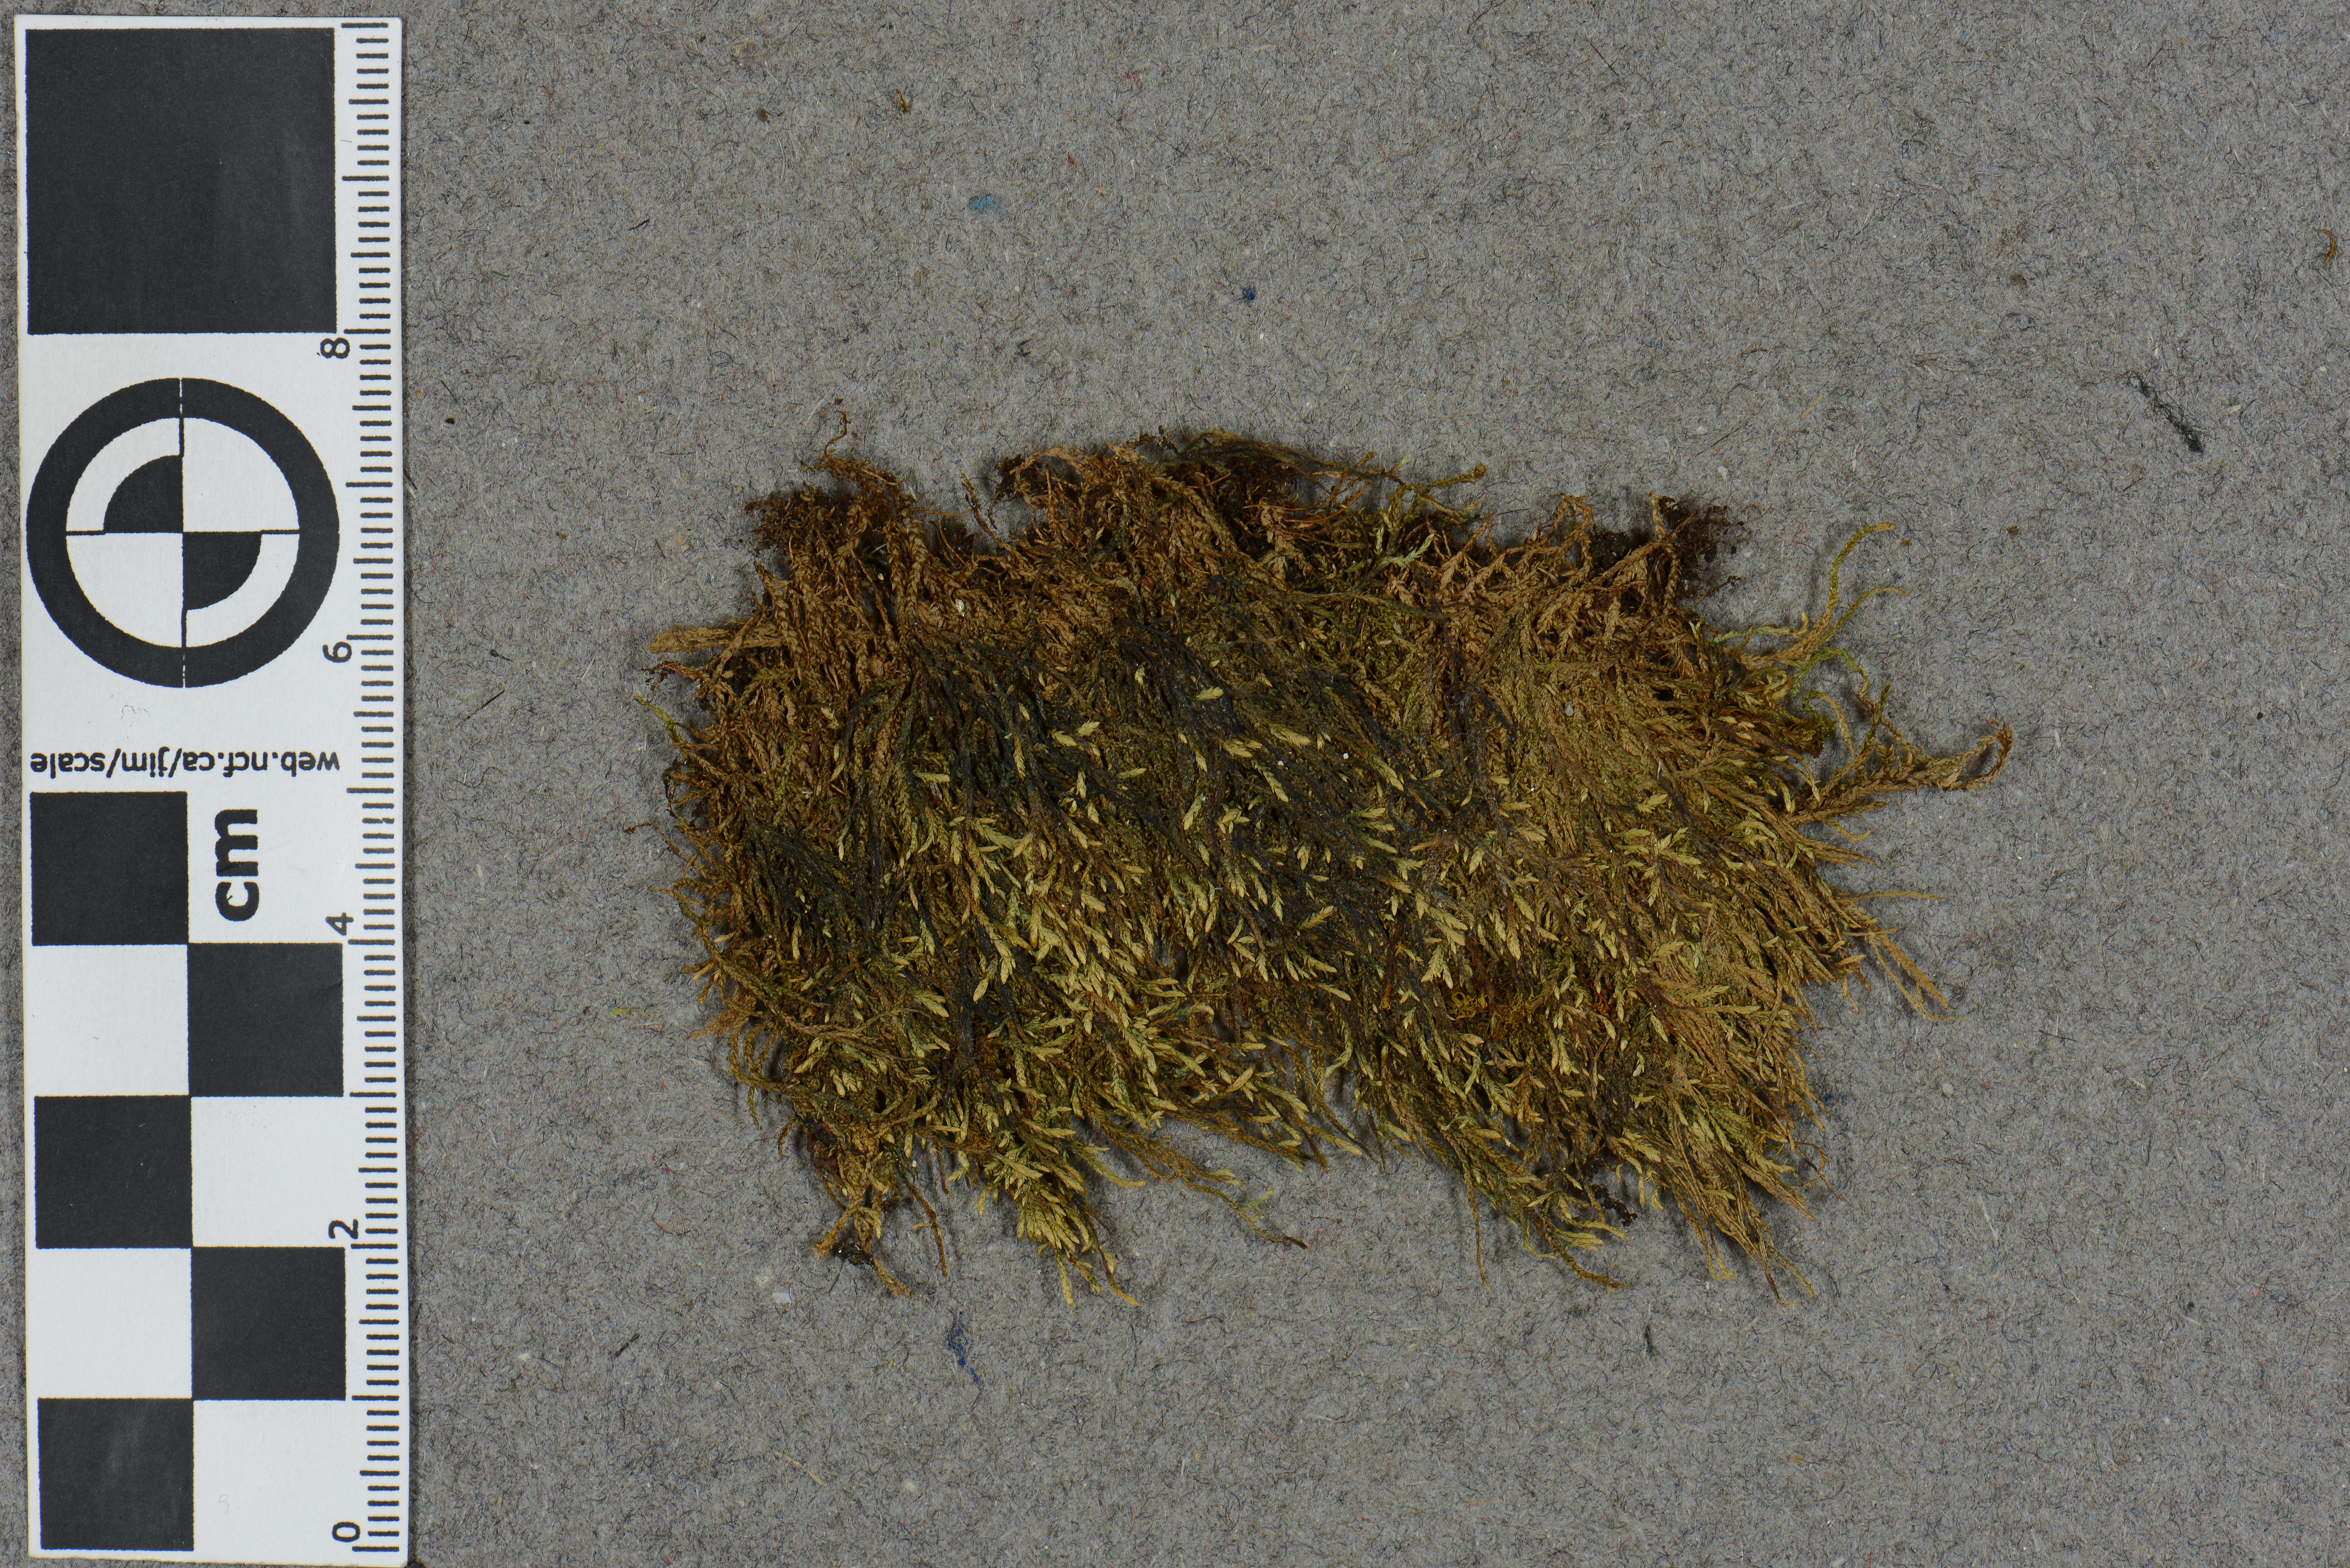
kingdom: Plantae
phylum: Bryophyta
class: Bryopsida
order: Hypnales
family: Brachytheciaceae
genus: Rhynchostegium
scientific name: Rhynchostegium murale
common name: Wall feather-moss
